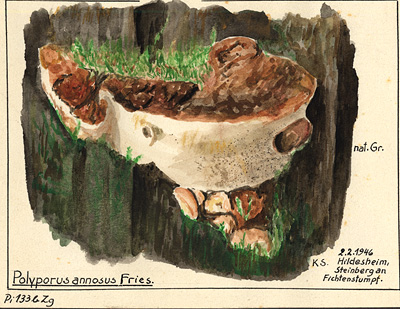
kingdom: Plantae
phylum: Tracheophyta
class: Pinopsida
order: Pinales
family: Pinaceae
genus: Picea
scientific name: Picea abies
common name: Norway spruce
